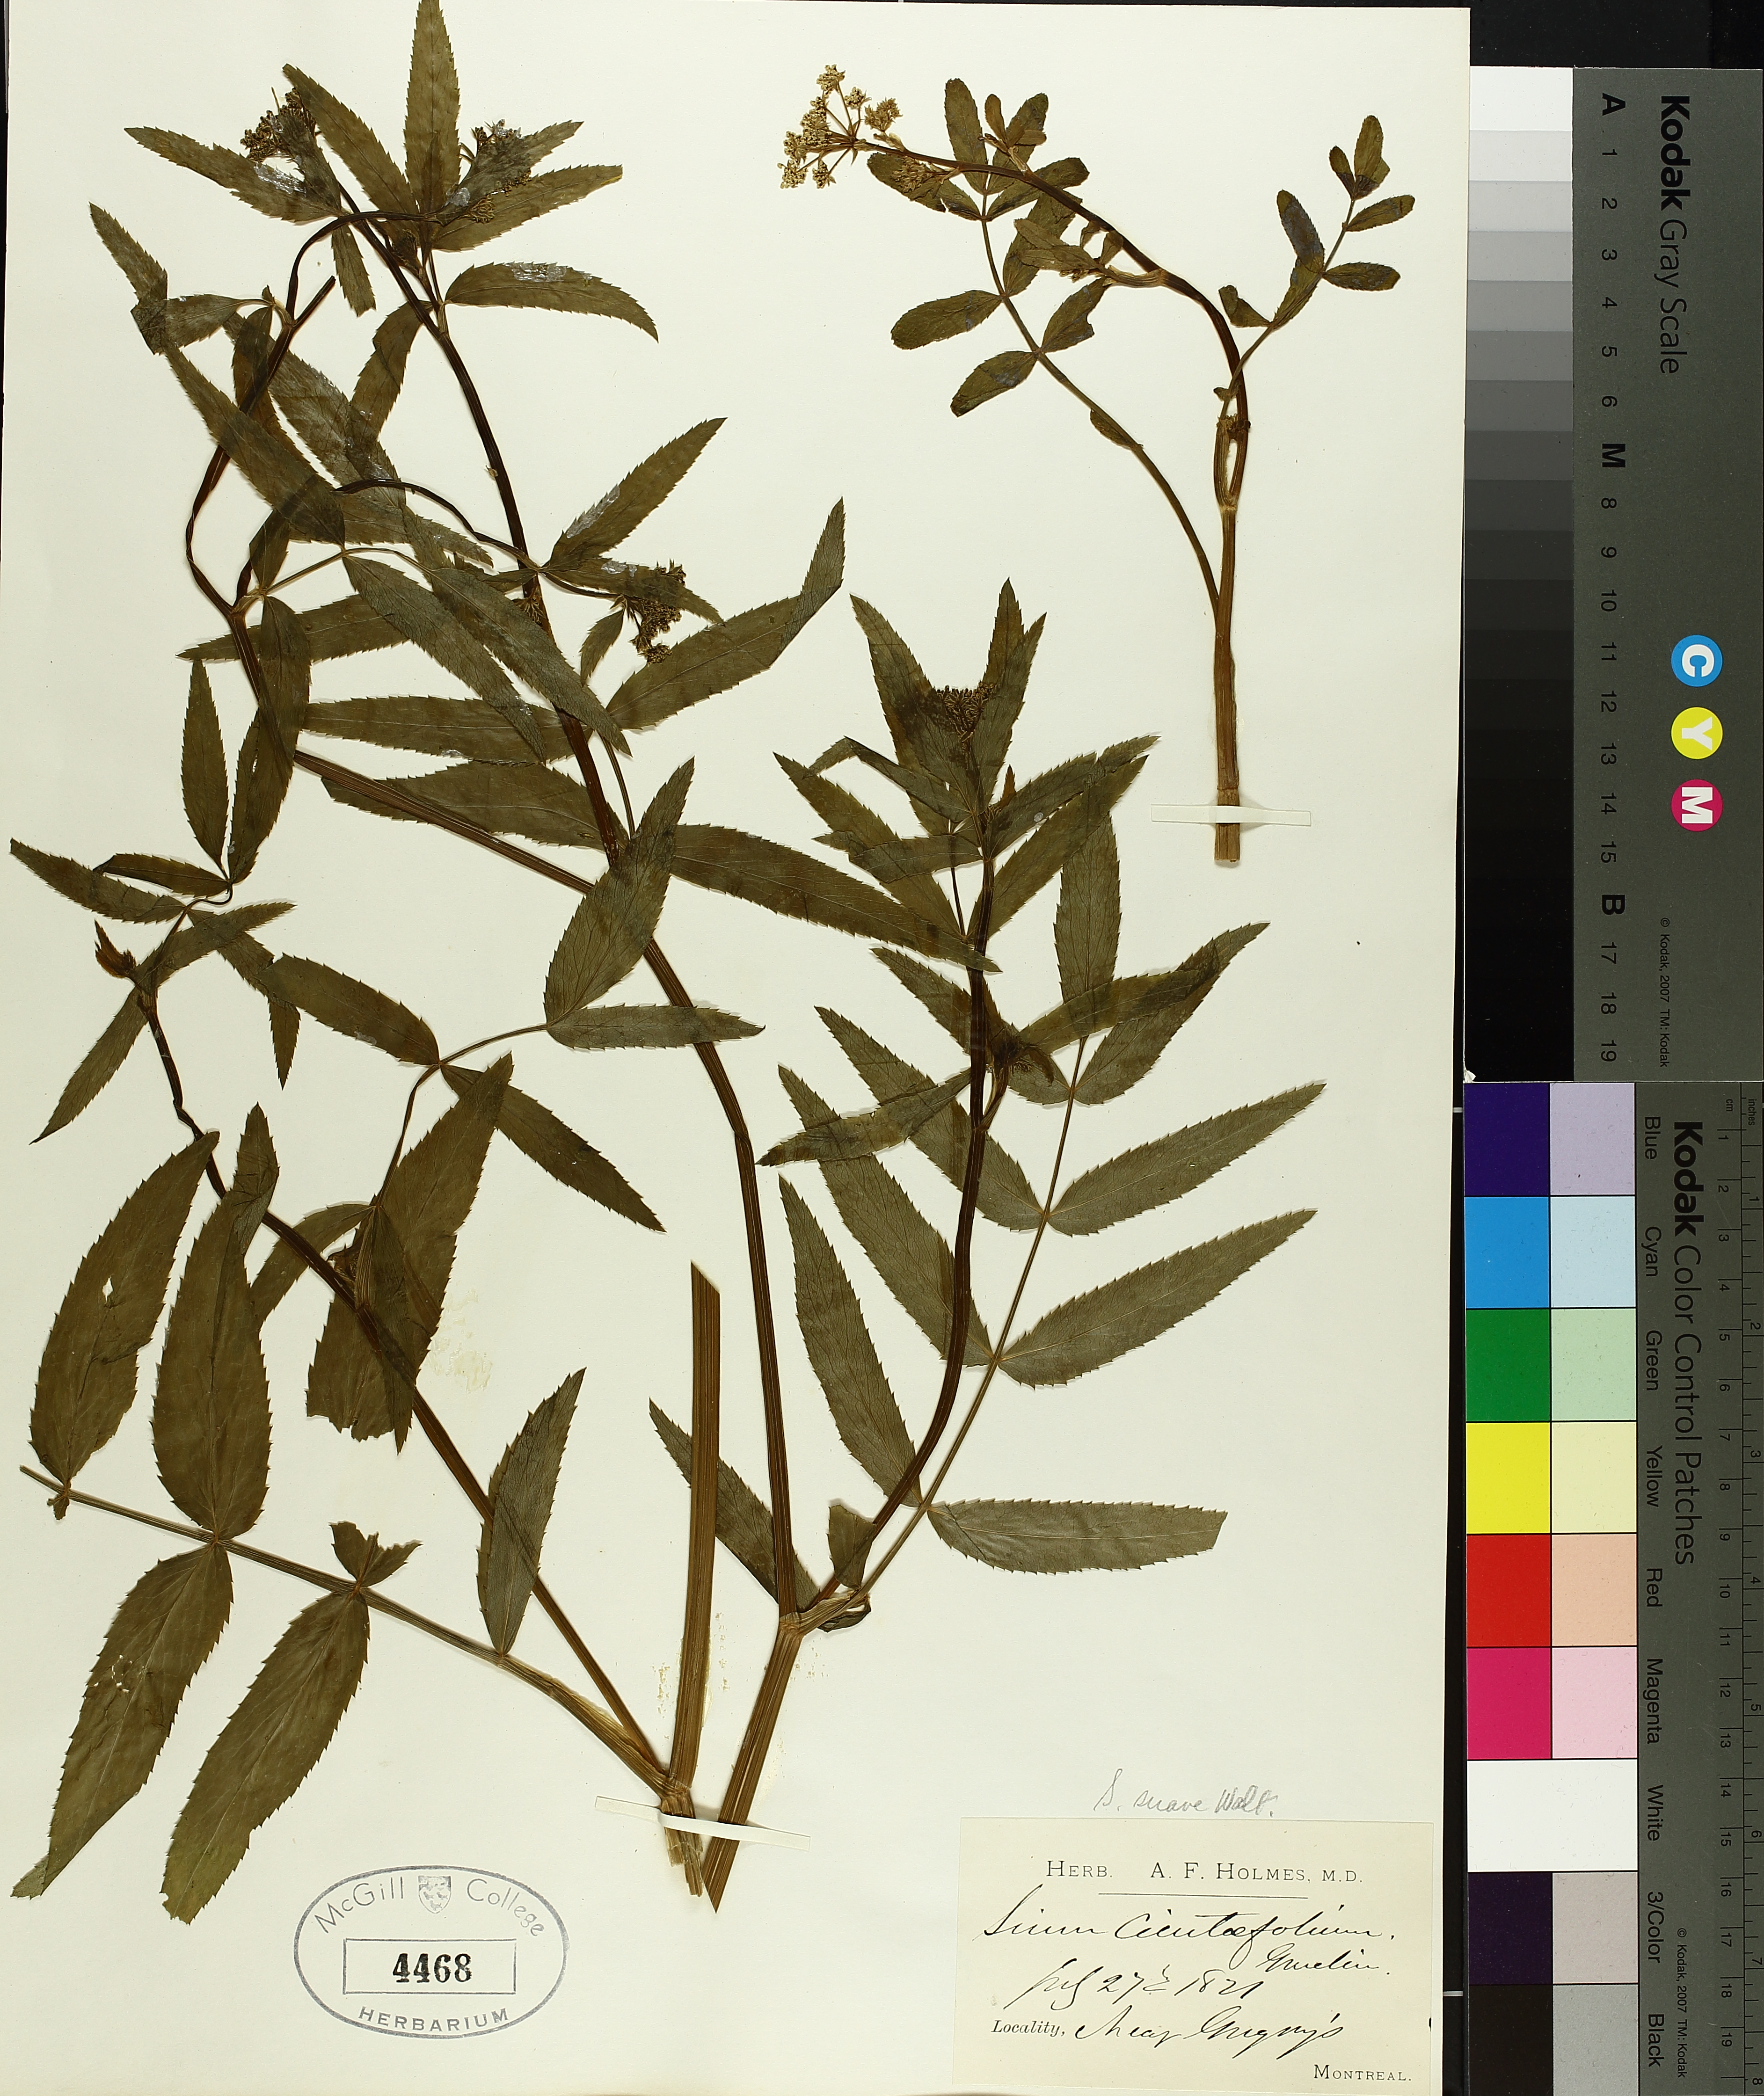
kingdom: Plantae
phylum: Tracheophyta
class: Magnoliopsida
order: Apiales
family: Apiaceae
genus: Sium
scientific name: Sium suave
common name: Hemlock water-parsnip
